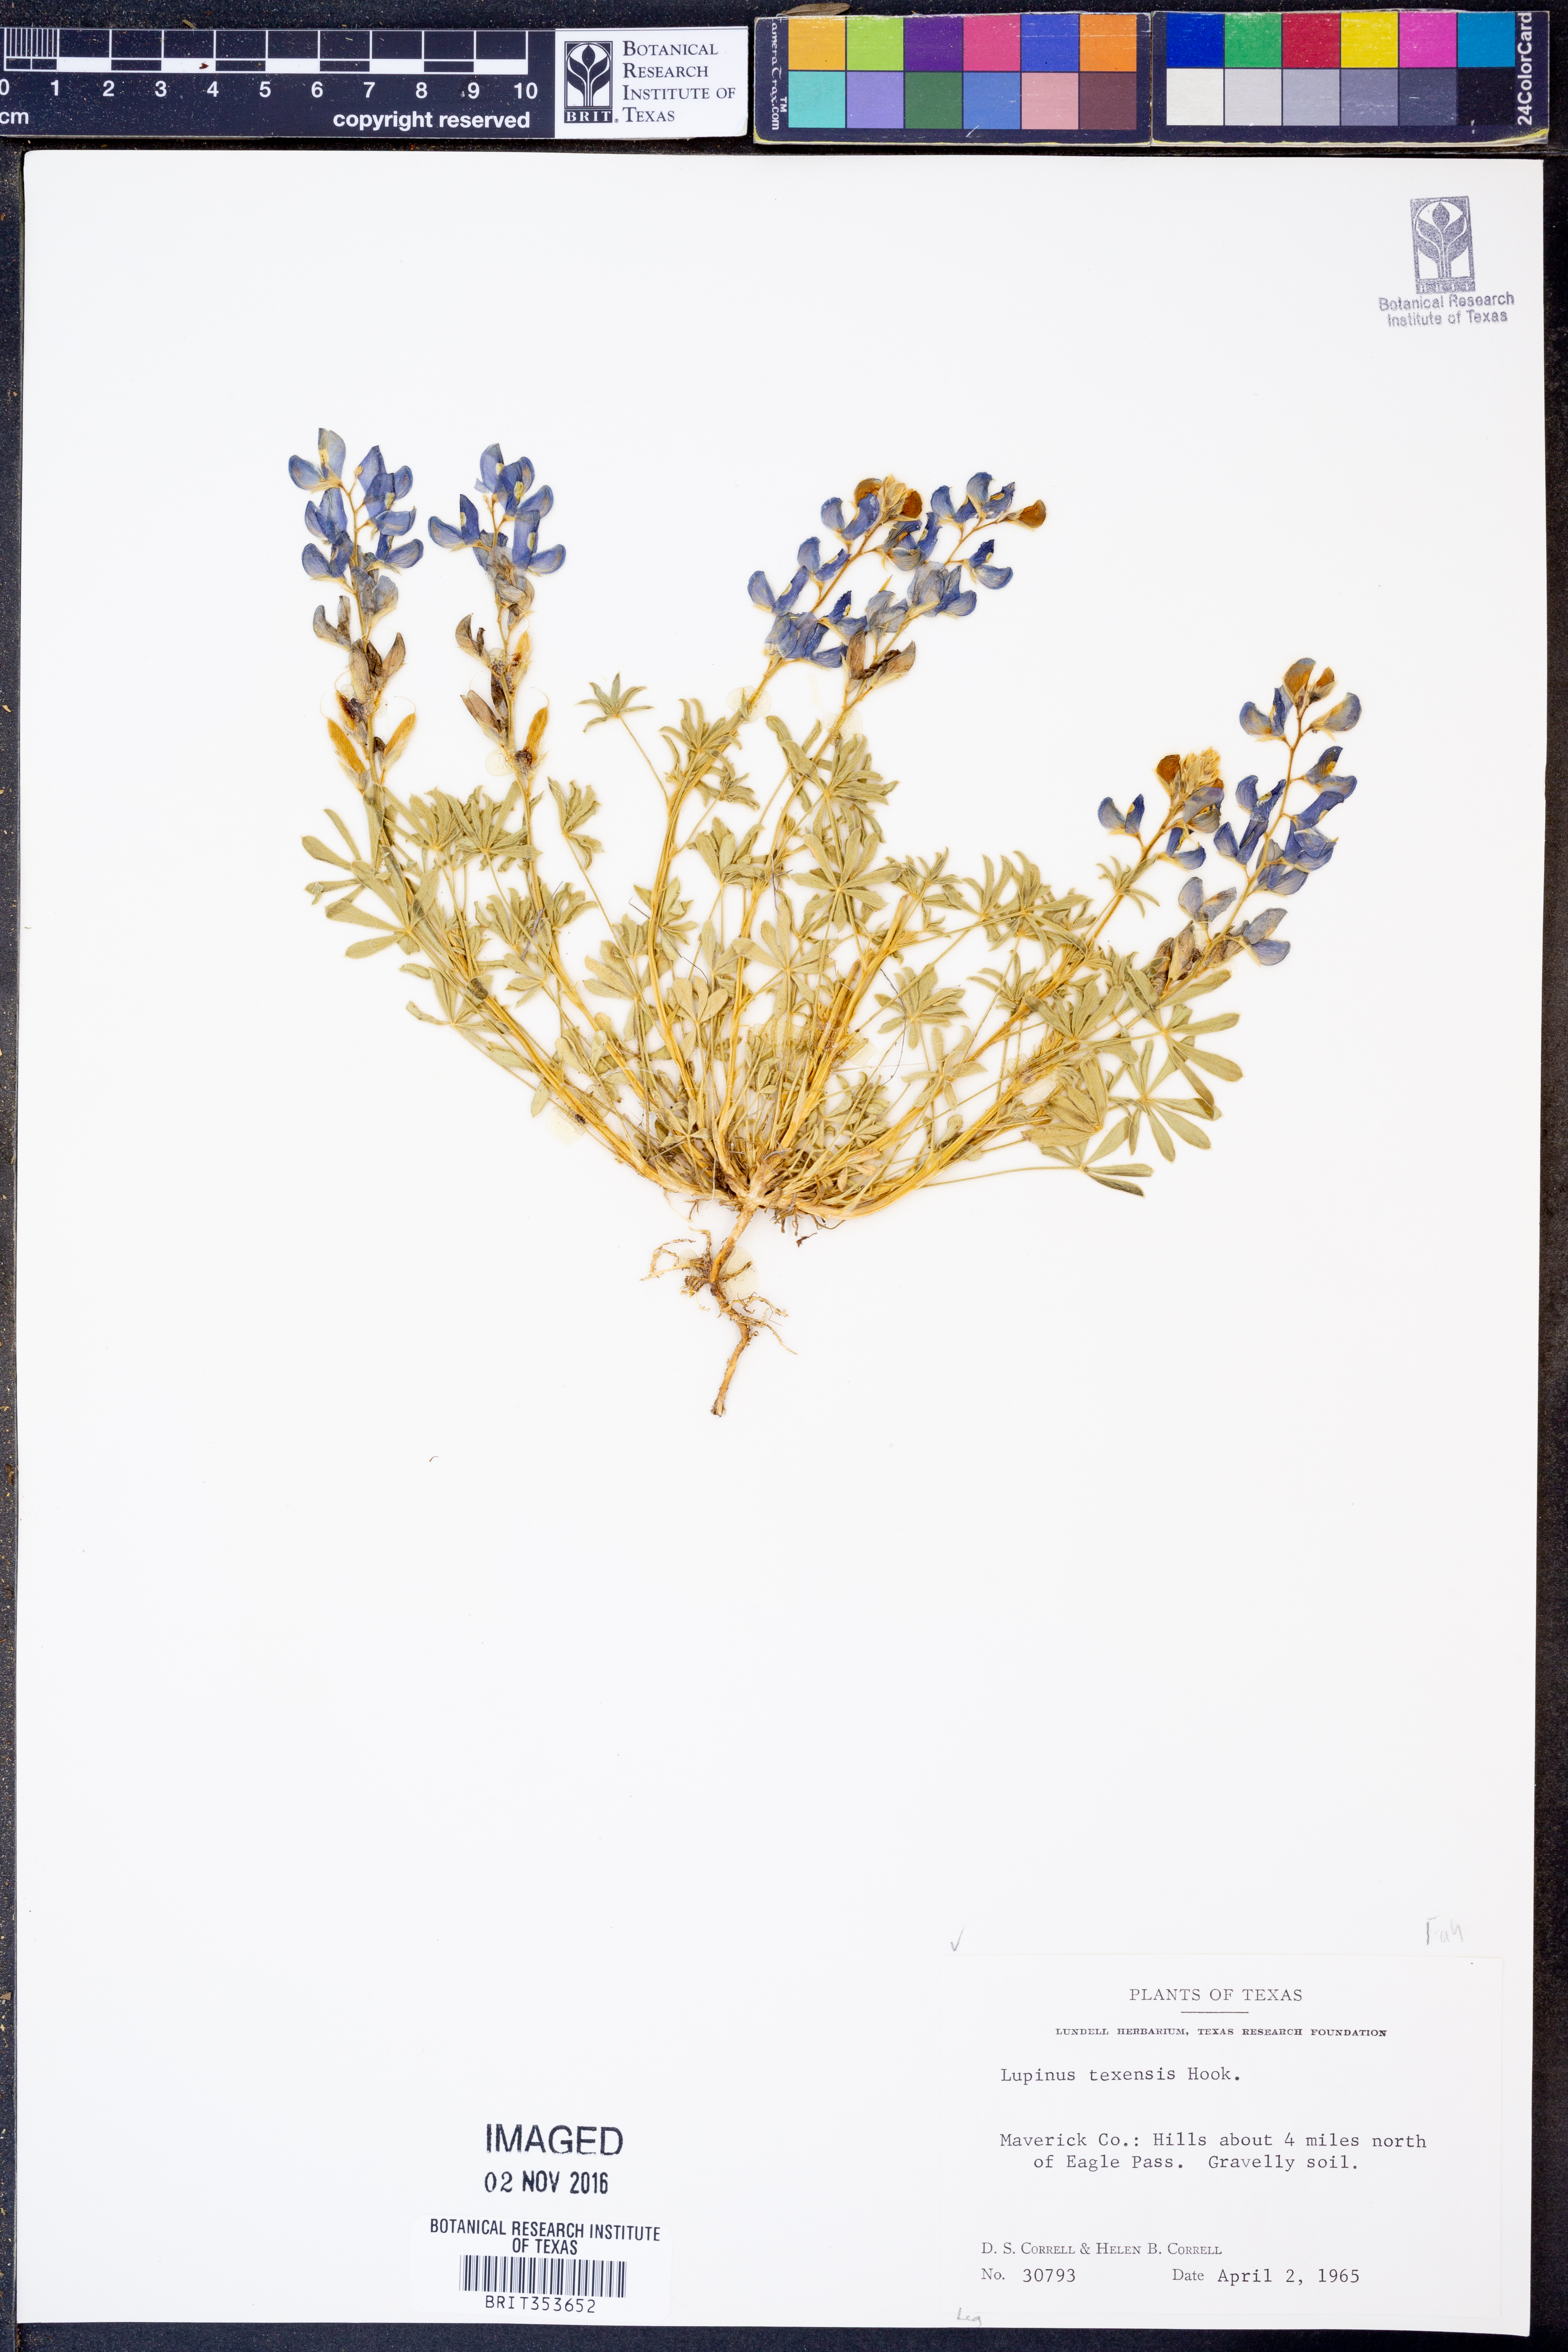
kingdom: Plantae
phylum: Tracheophyta
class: Magnoliopsida
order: Fabales
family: Fabaceae
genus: Lupinus
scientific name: Lupinus texensis
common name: Texas bluebonnet
